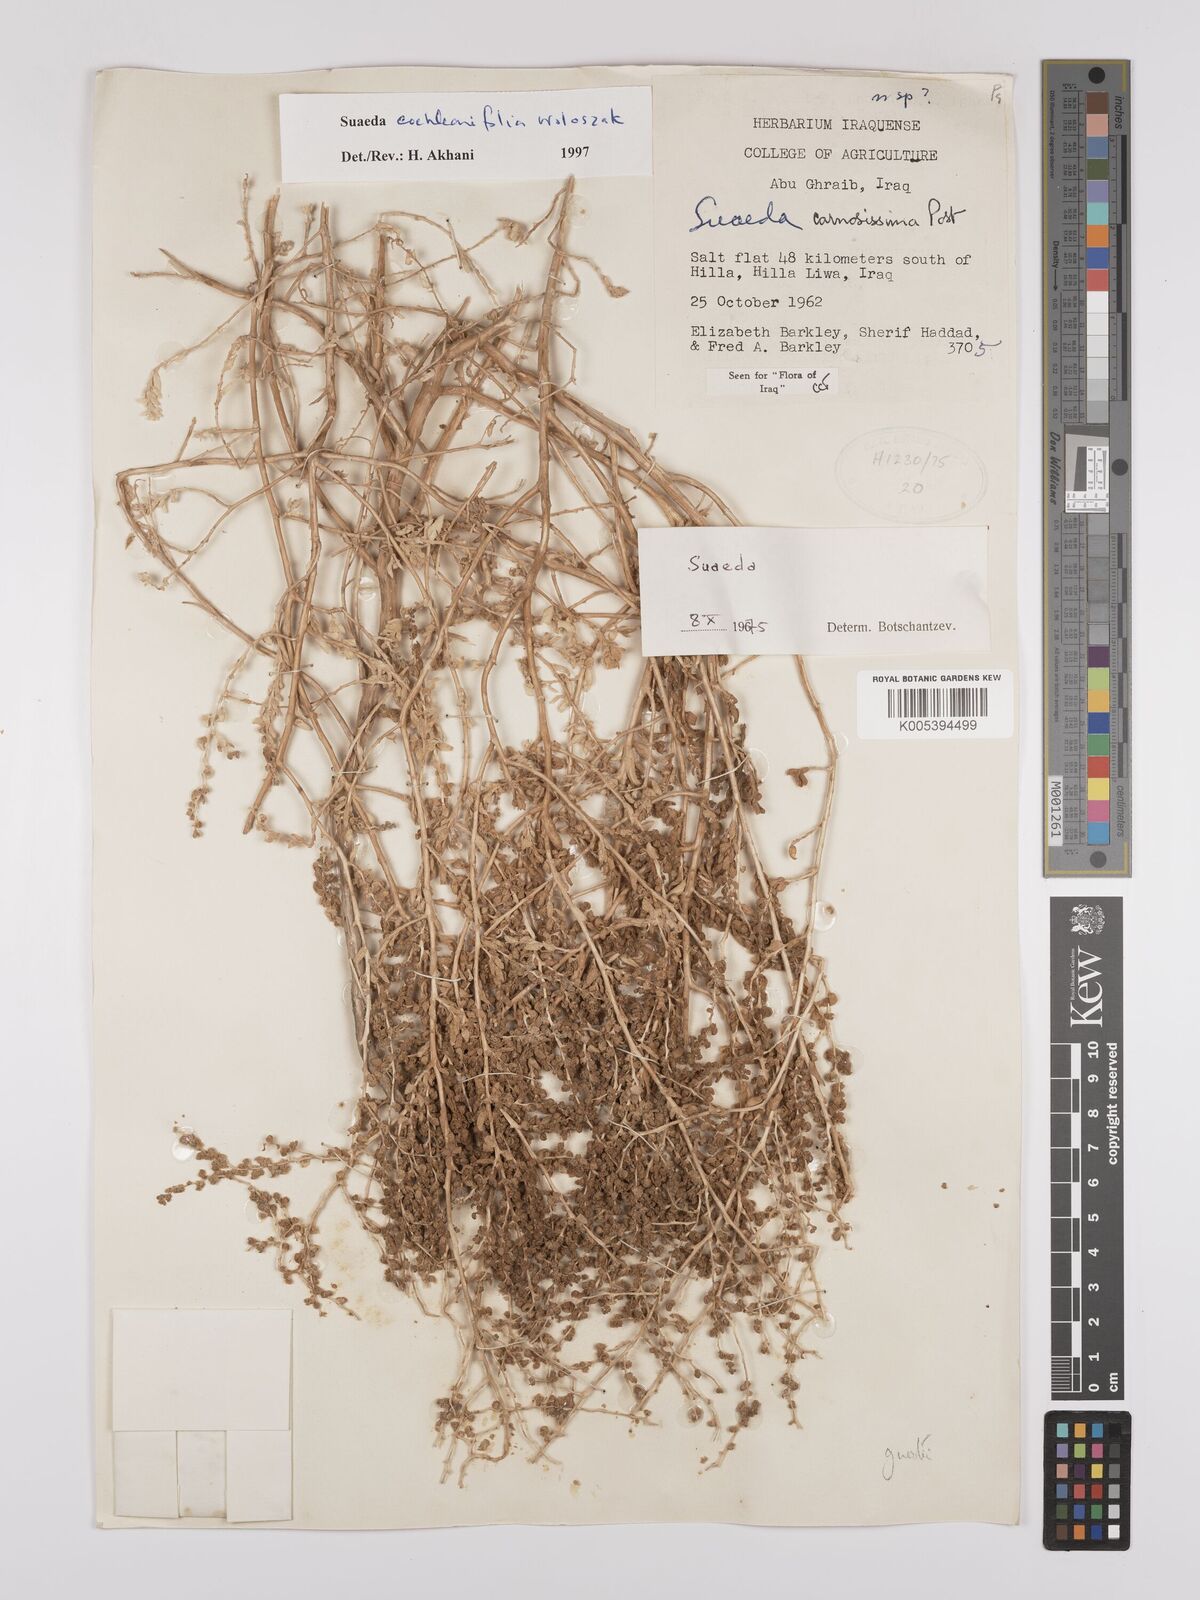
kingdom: Plantae
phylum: Tracheophyta
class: Magnoliopsida
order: Caryophyllales
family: Amaranthaceae
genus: Suaeda
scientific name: Suaeda carnosissima
